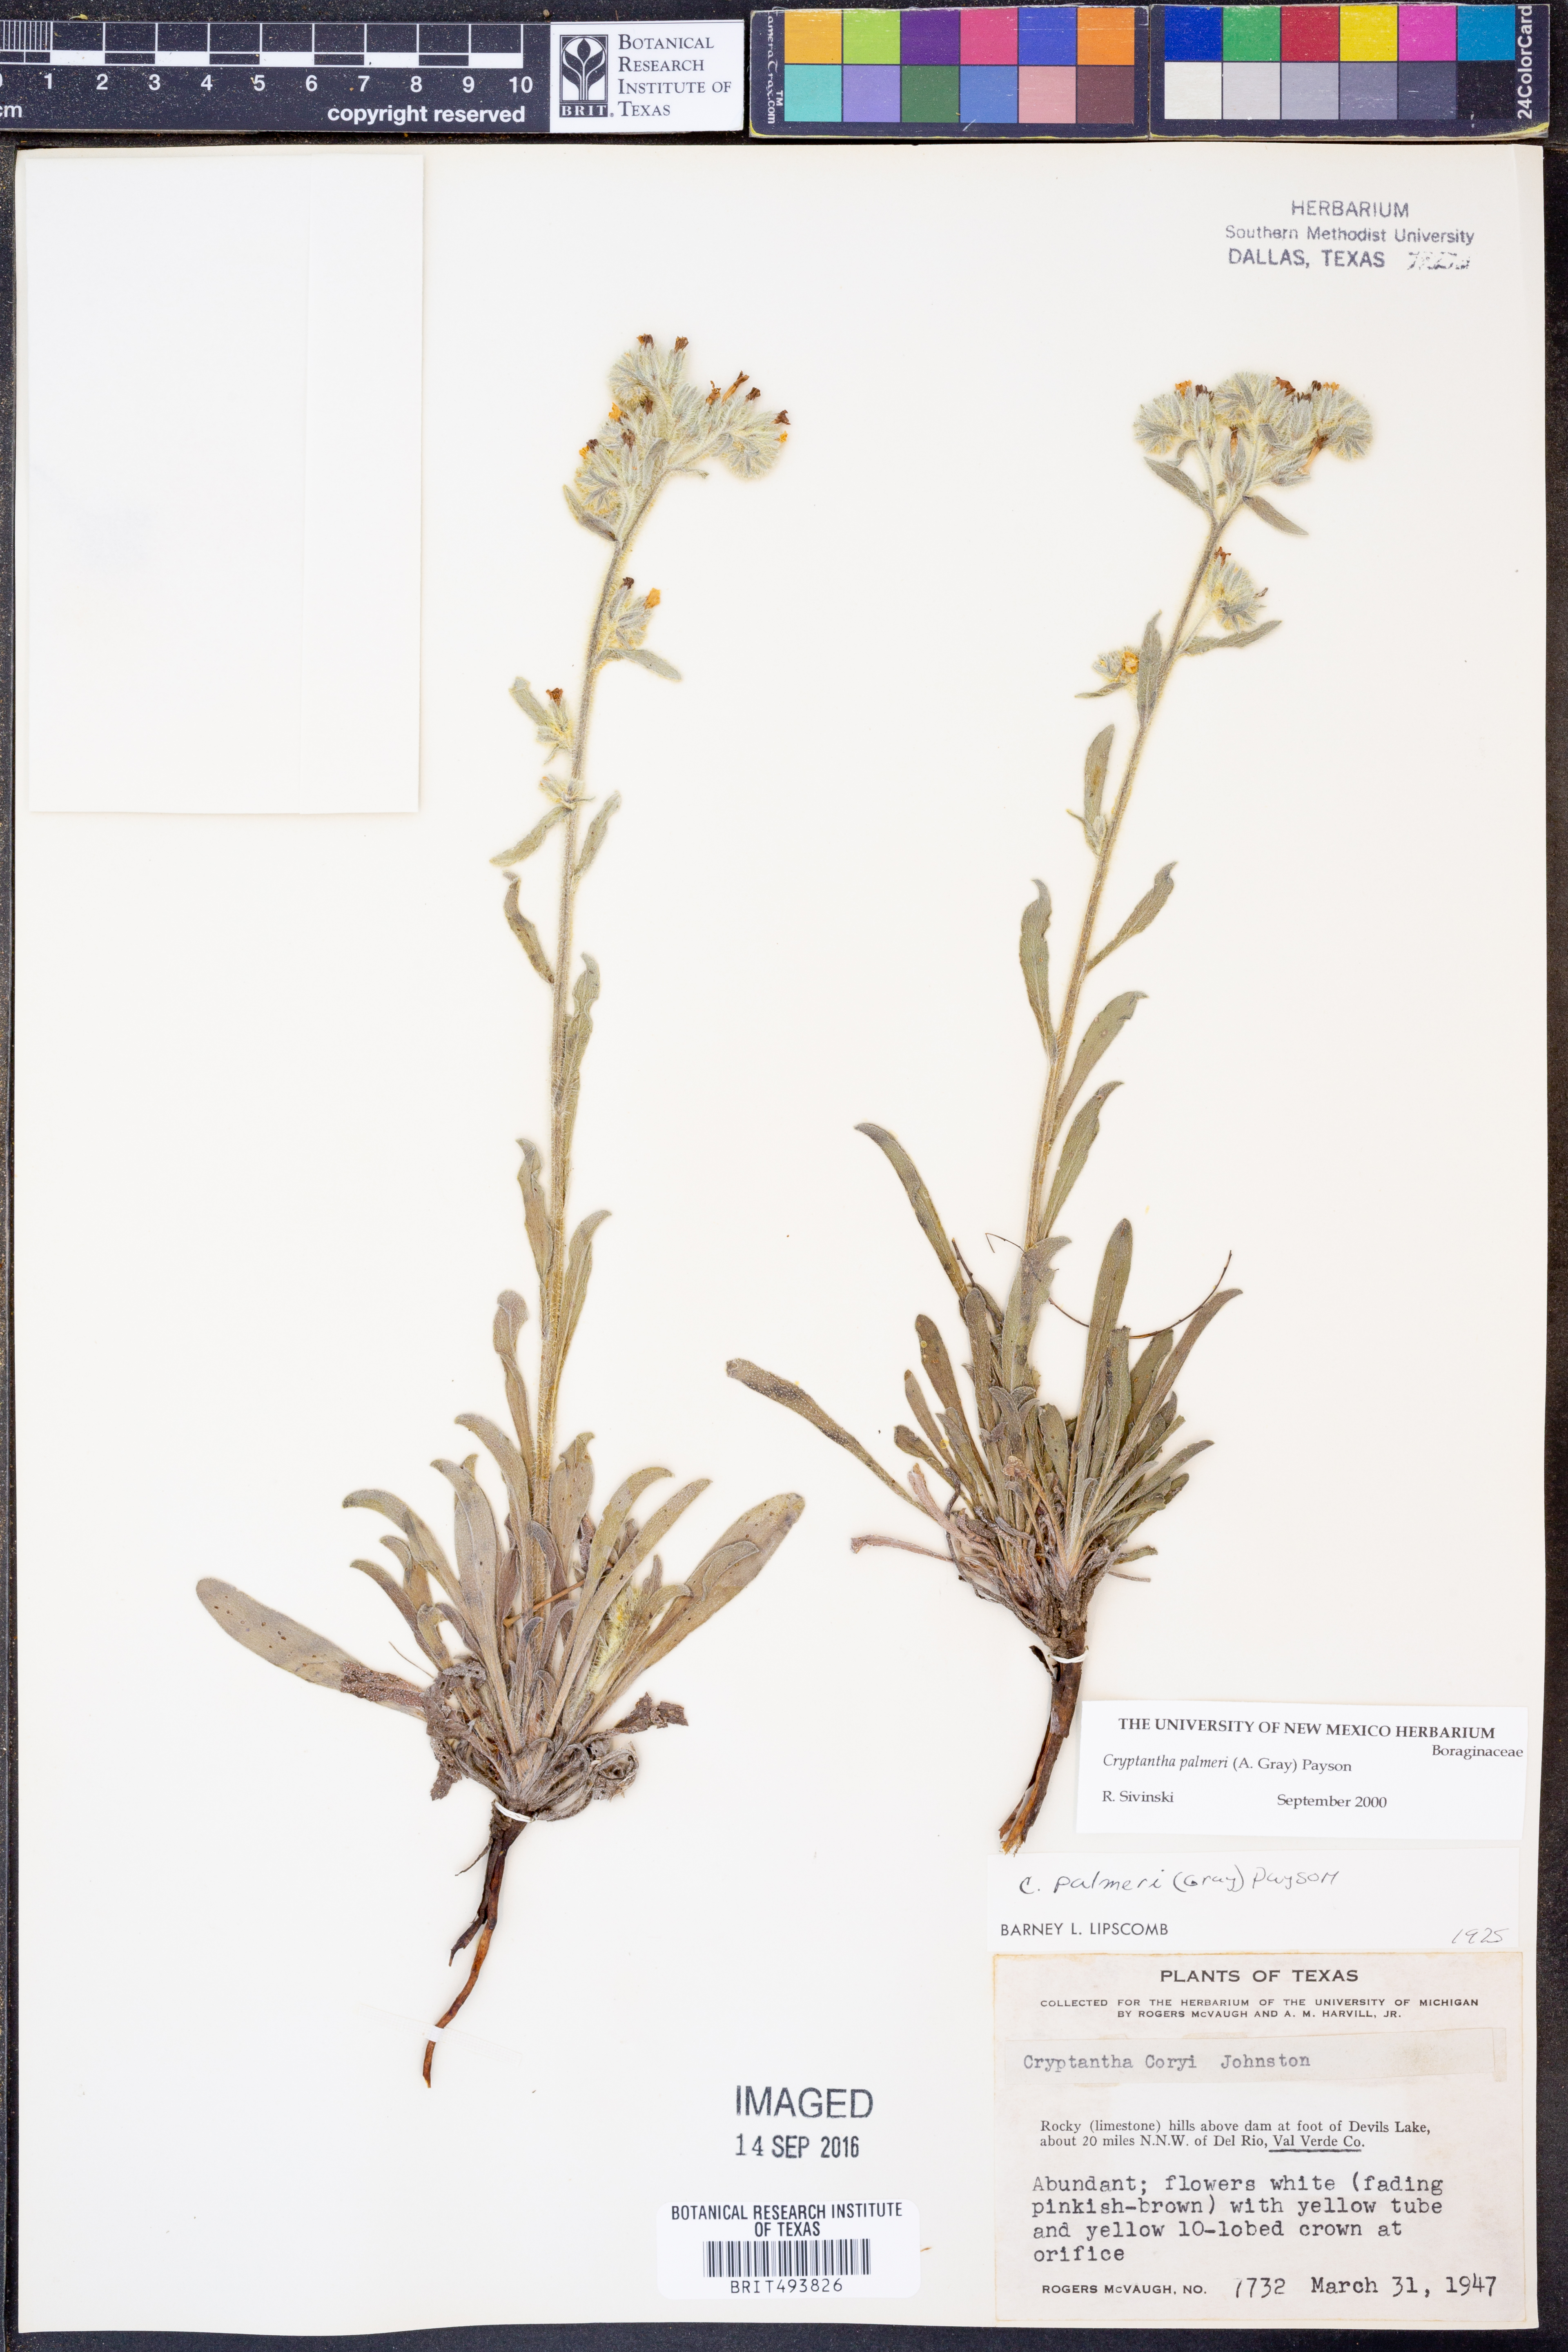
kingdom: Plantae
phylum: Tracheophyta
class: Magnoliopsida
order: Boraginales
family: Boraginaceae
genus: Oreocarya
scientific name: Oreocarya palmeri
